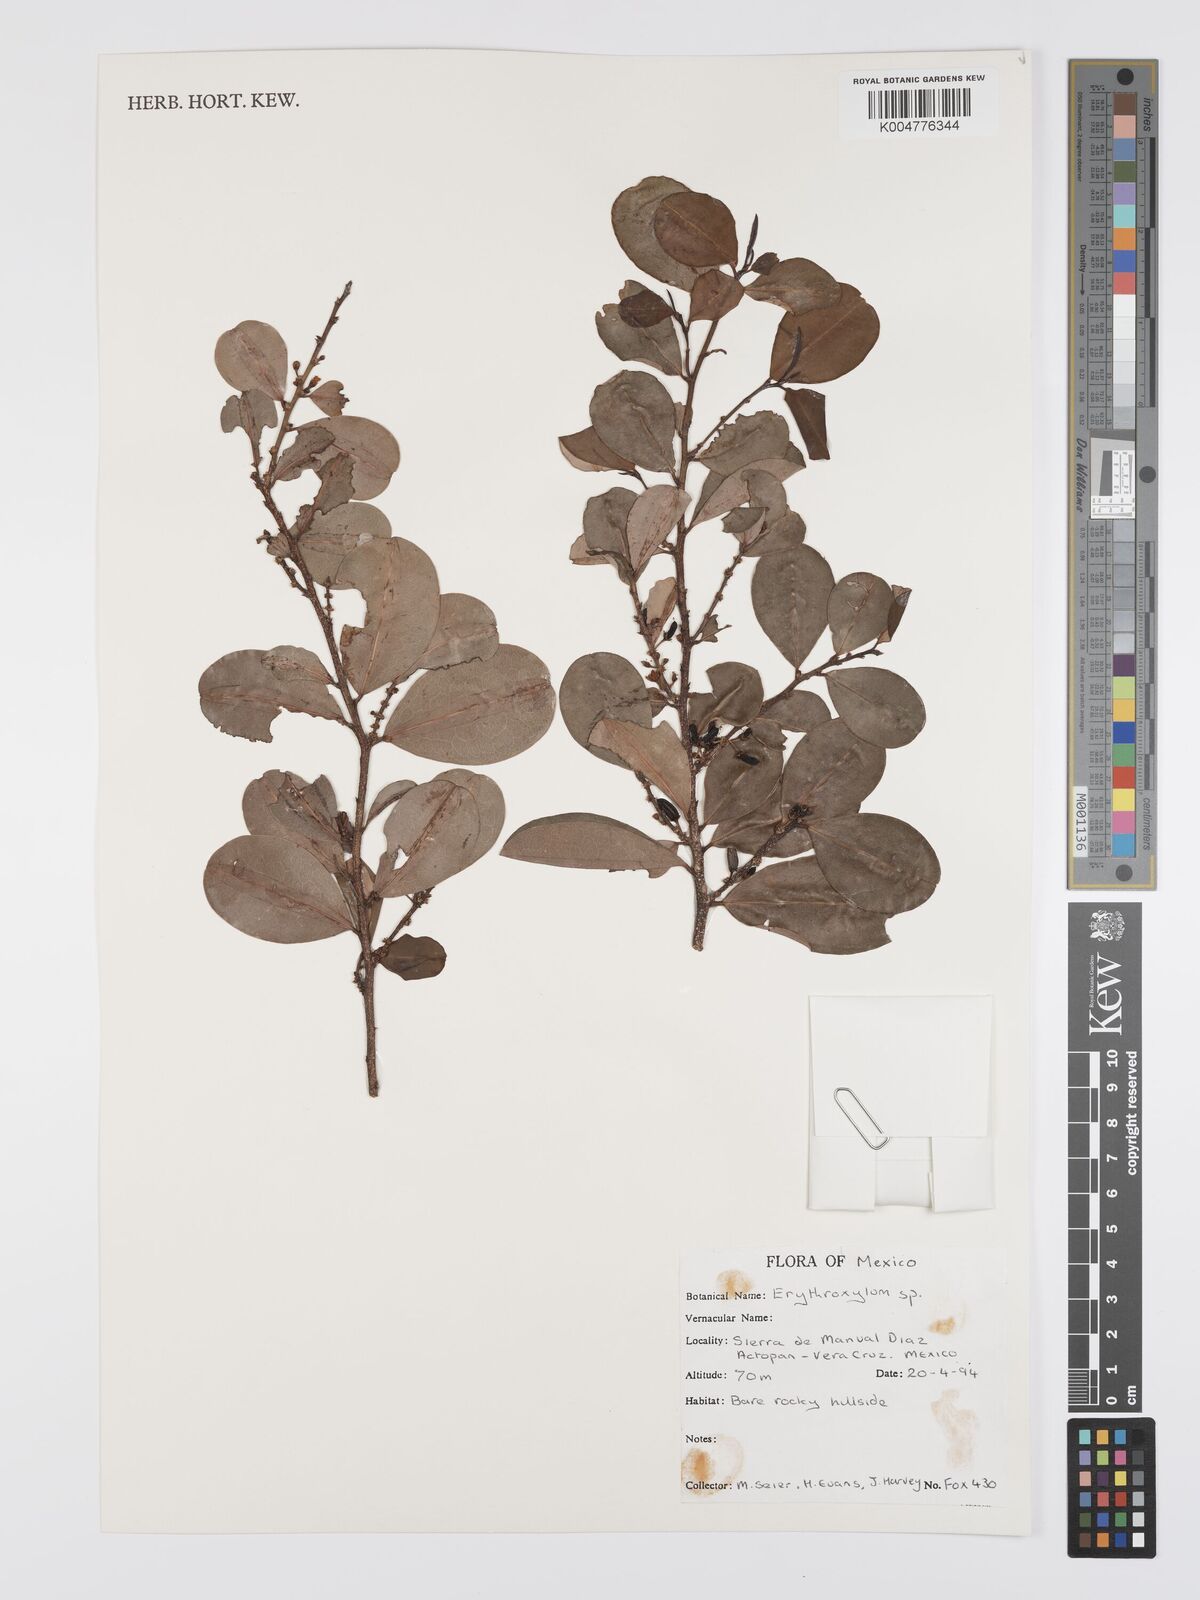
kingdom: Plantae
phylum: Tracheophyta
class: Magnoliopsida
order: Malpighiales
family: Erythroxylaceae
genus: Erythroxylum
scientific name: Erythroxylum
